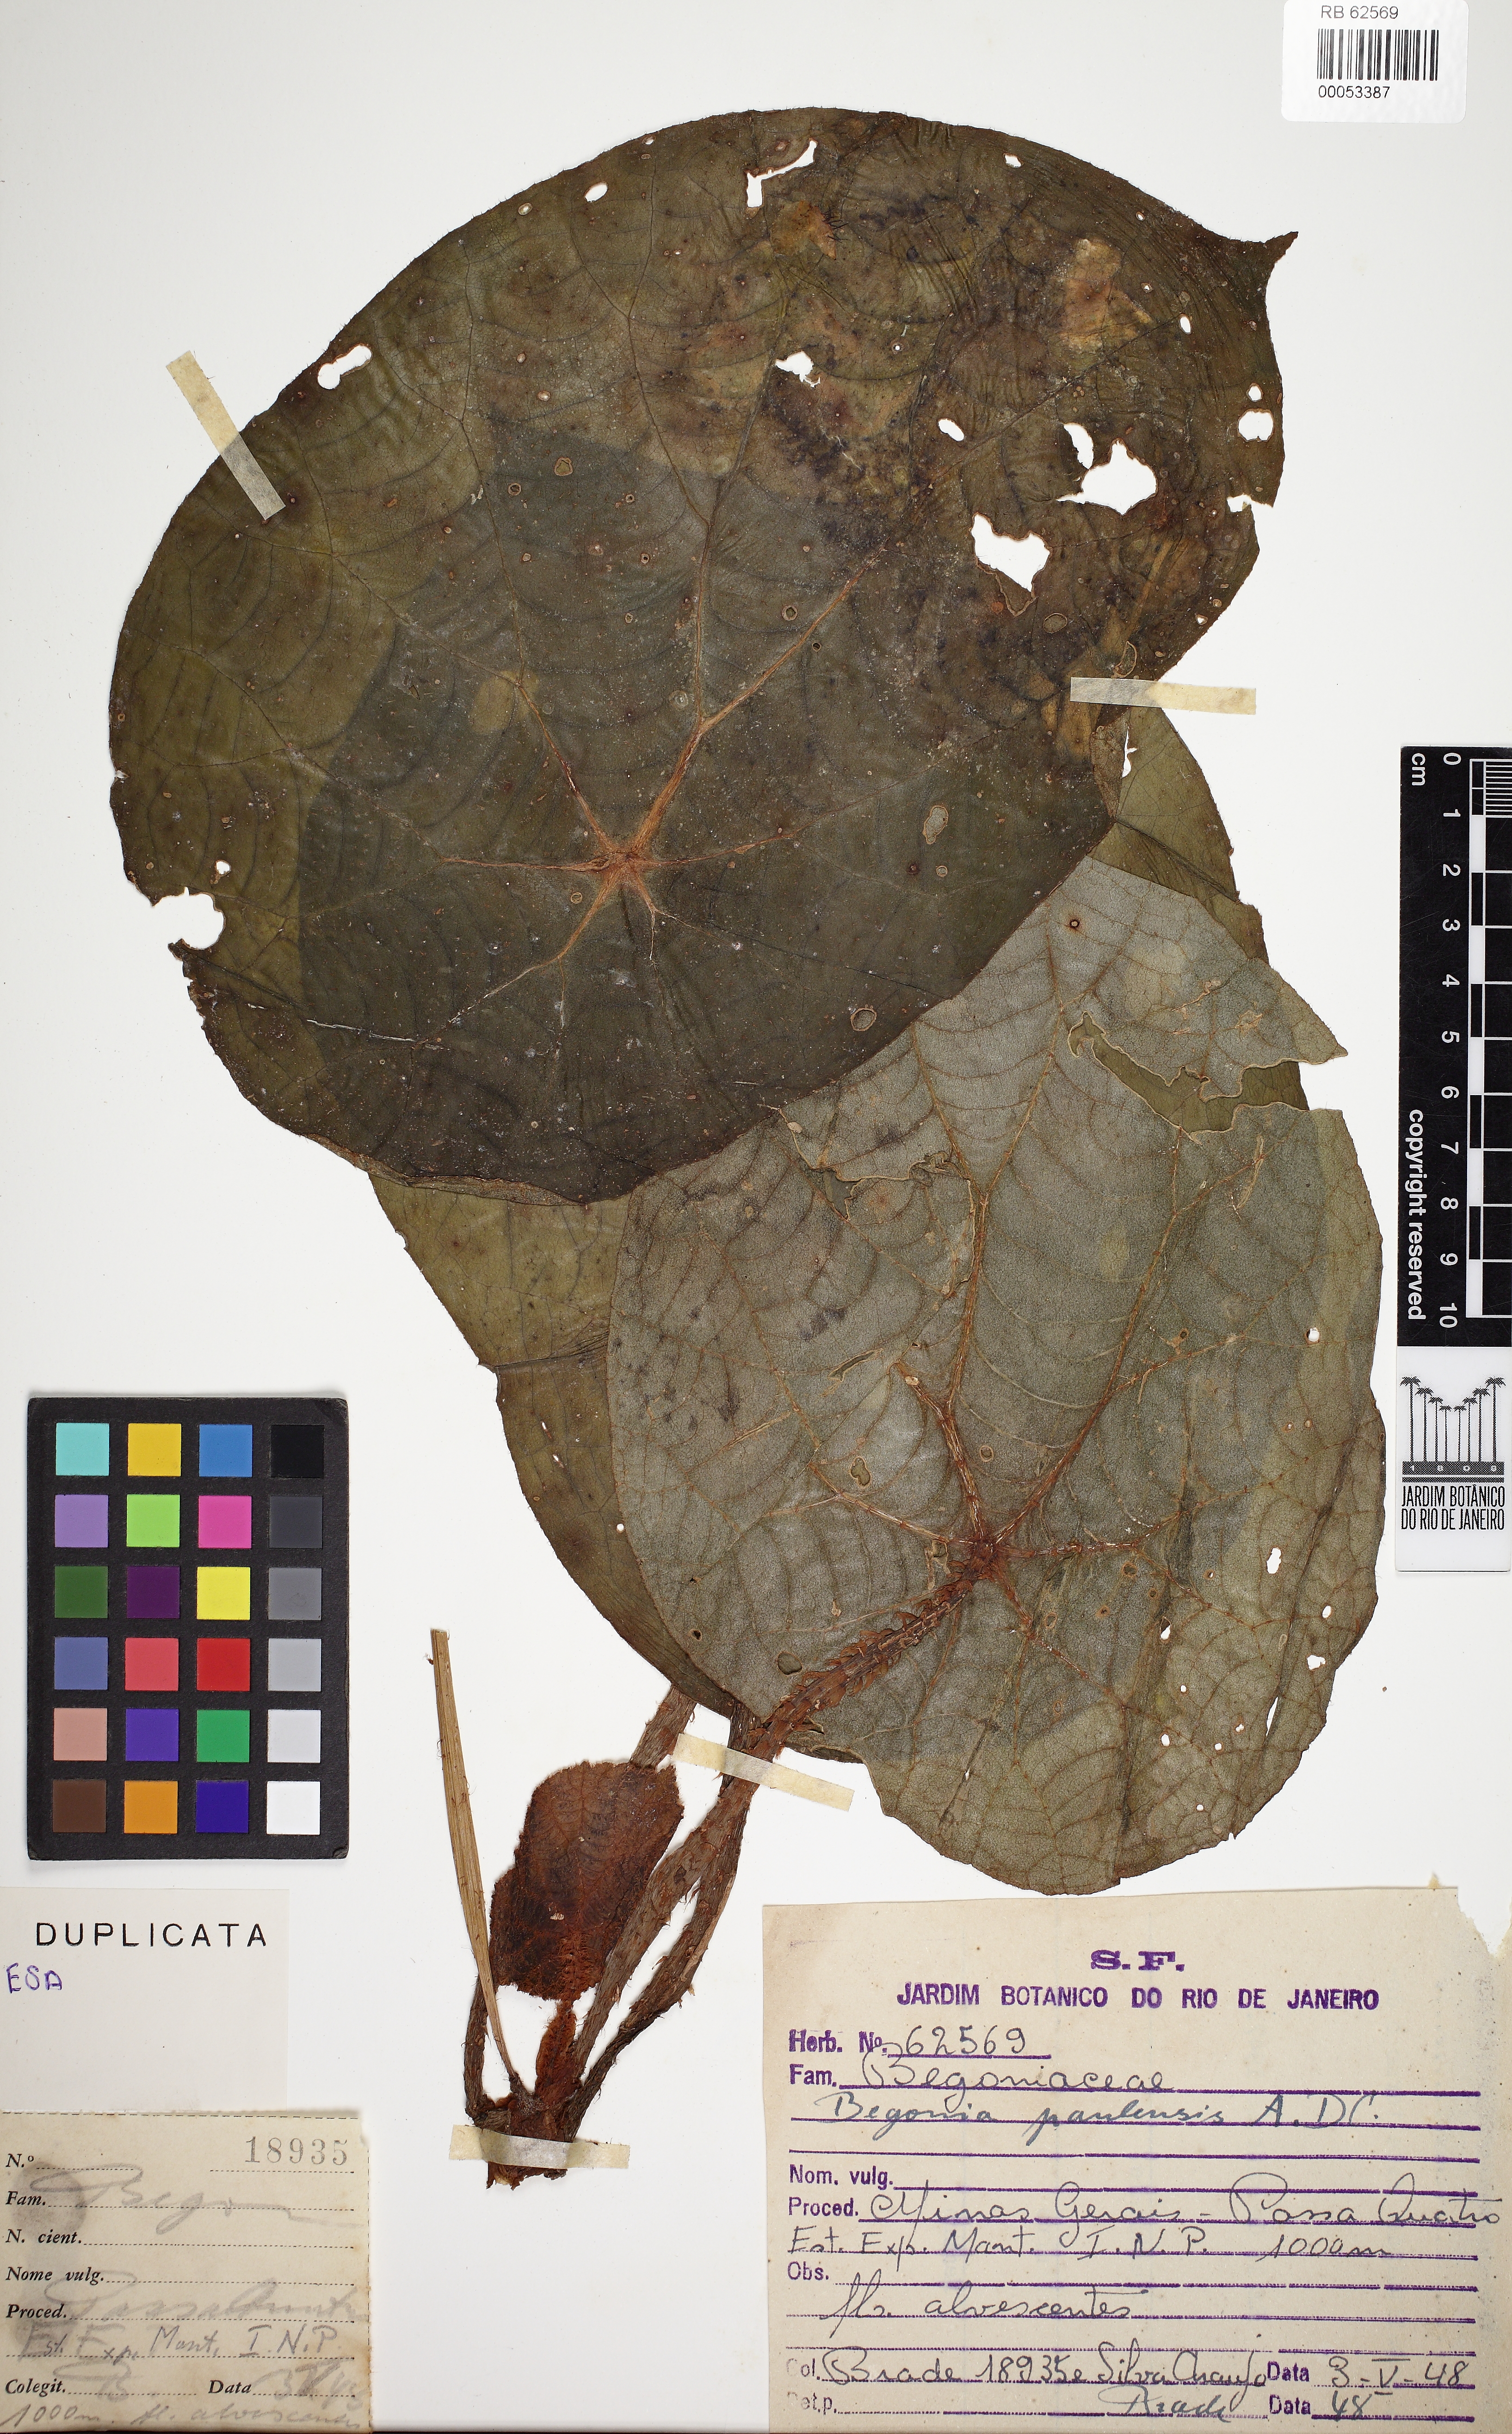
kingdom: Plantae
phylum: Tracheophyta
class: Magnoliopsida
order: Cucurbitales
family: Begoniaceae
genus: Begonia
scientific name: Begonia paulensis
